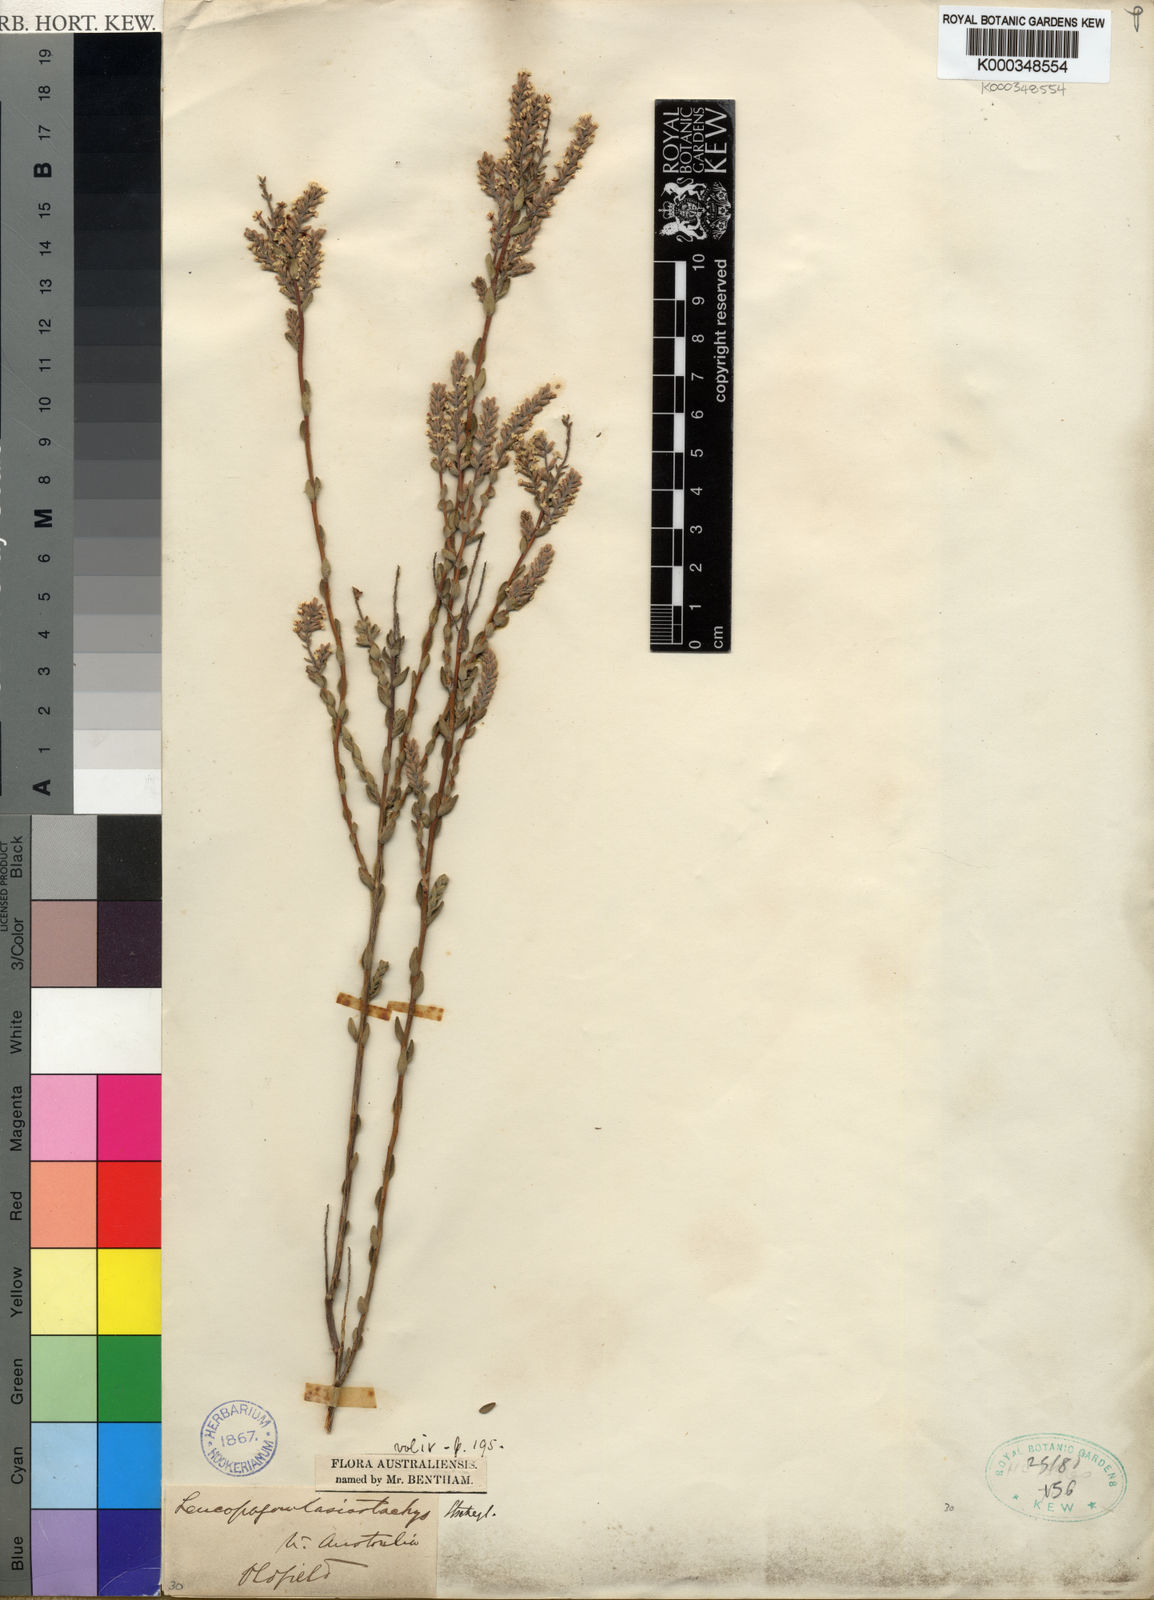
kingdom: Plantae
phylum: Tracheophyta
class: Magnoliopsida
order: Ericales
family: Ericaceae
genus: Leucopogon
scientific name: Leucopogon
